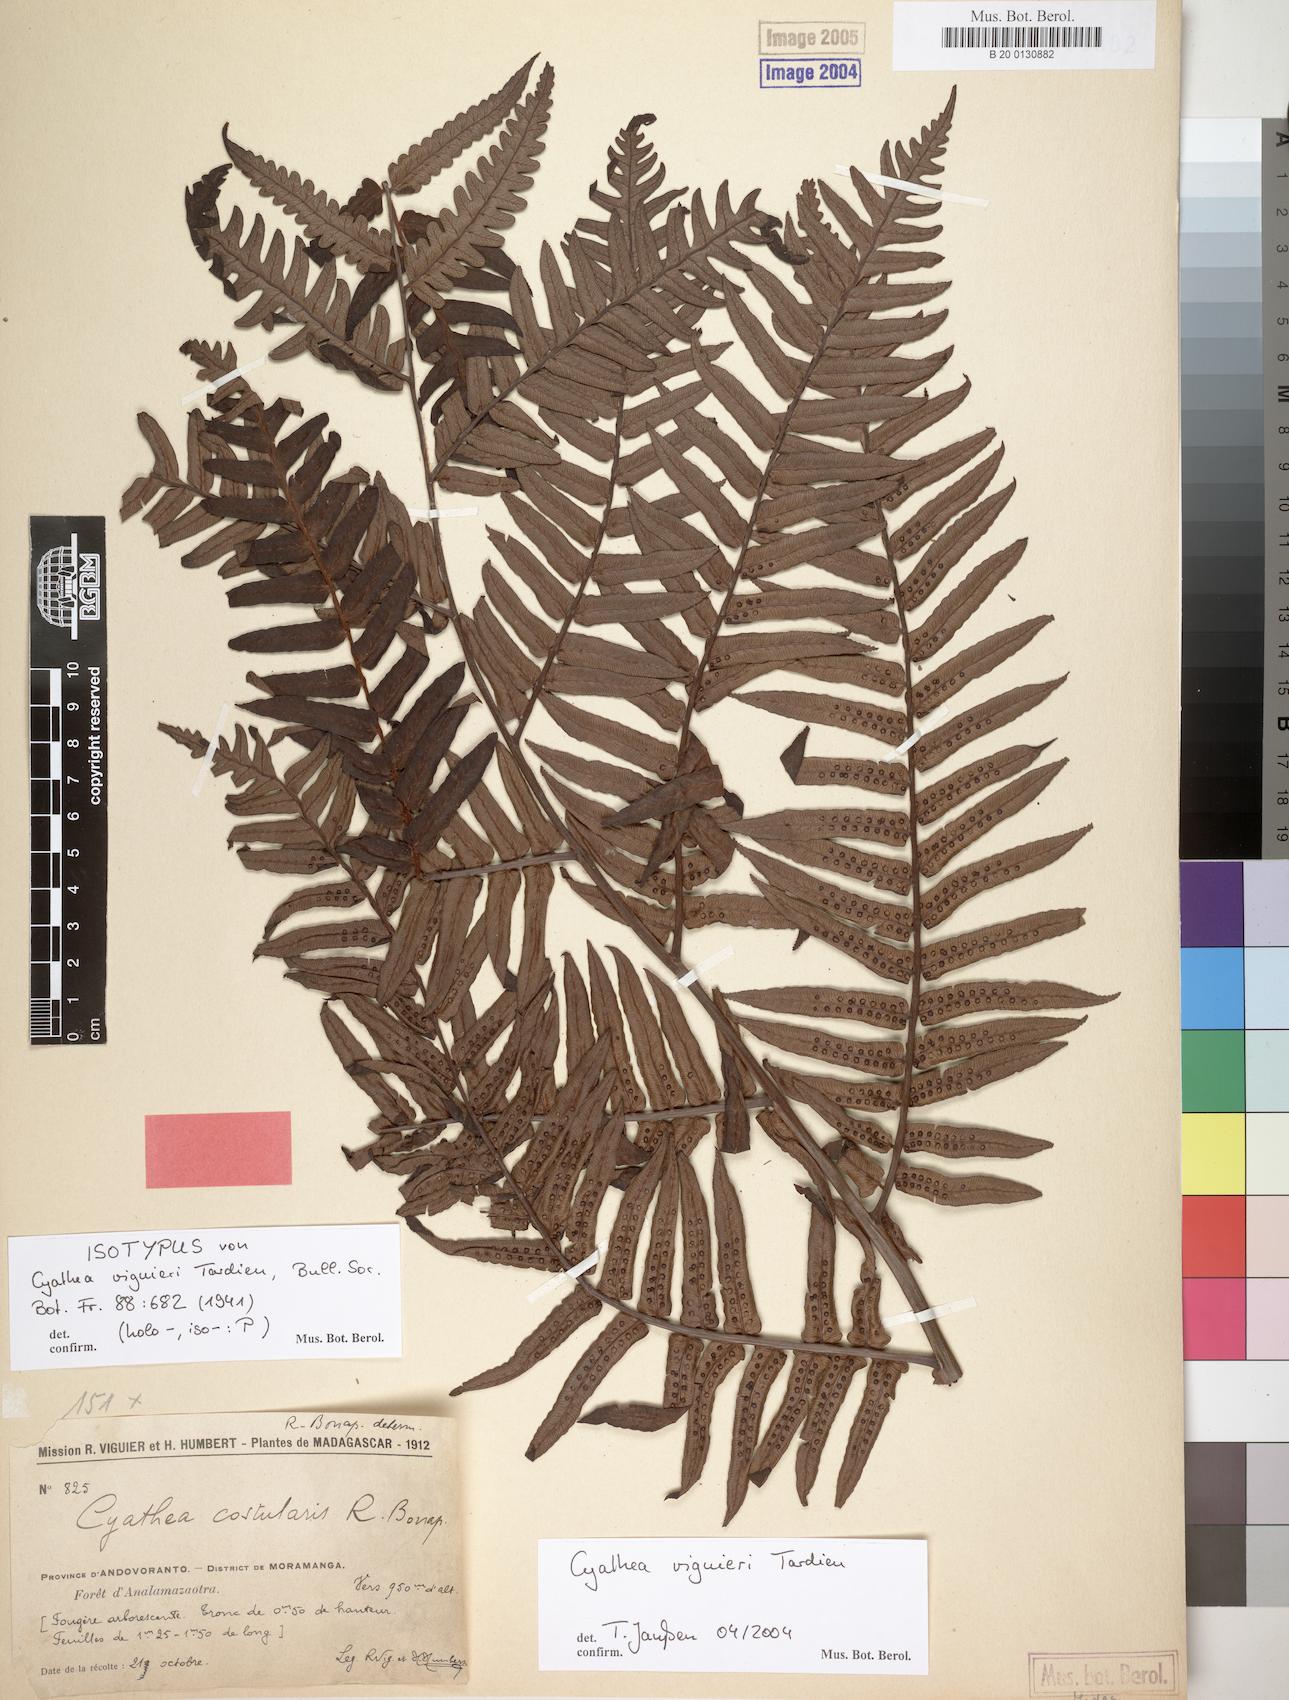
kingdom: Plantae
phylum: Tracheophyta
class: Polypodiopsida
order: Cyatheales
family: Cyatheaceae
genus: Alsophila
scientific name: Alsophila viguieri
